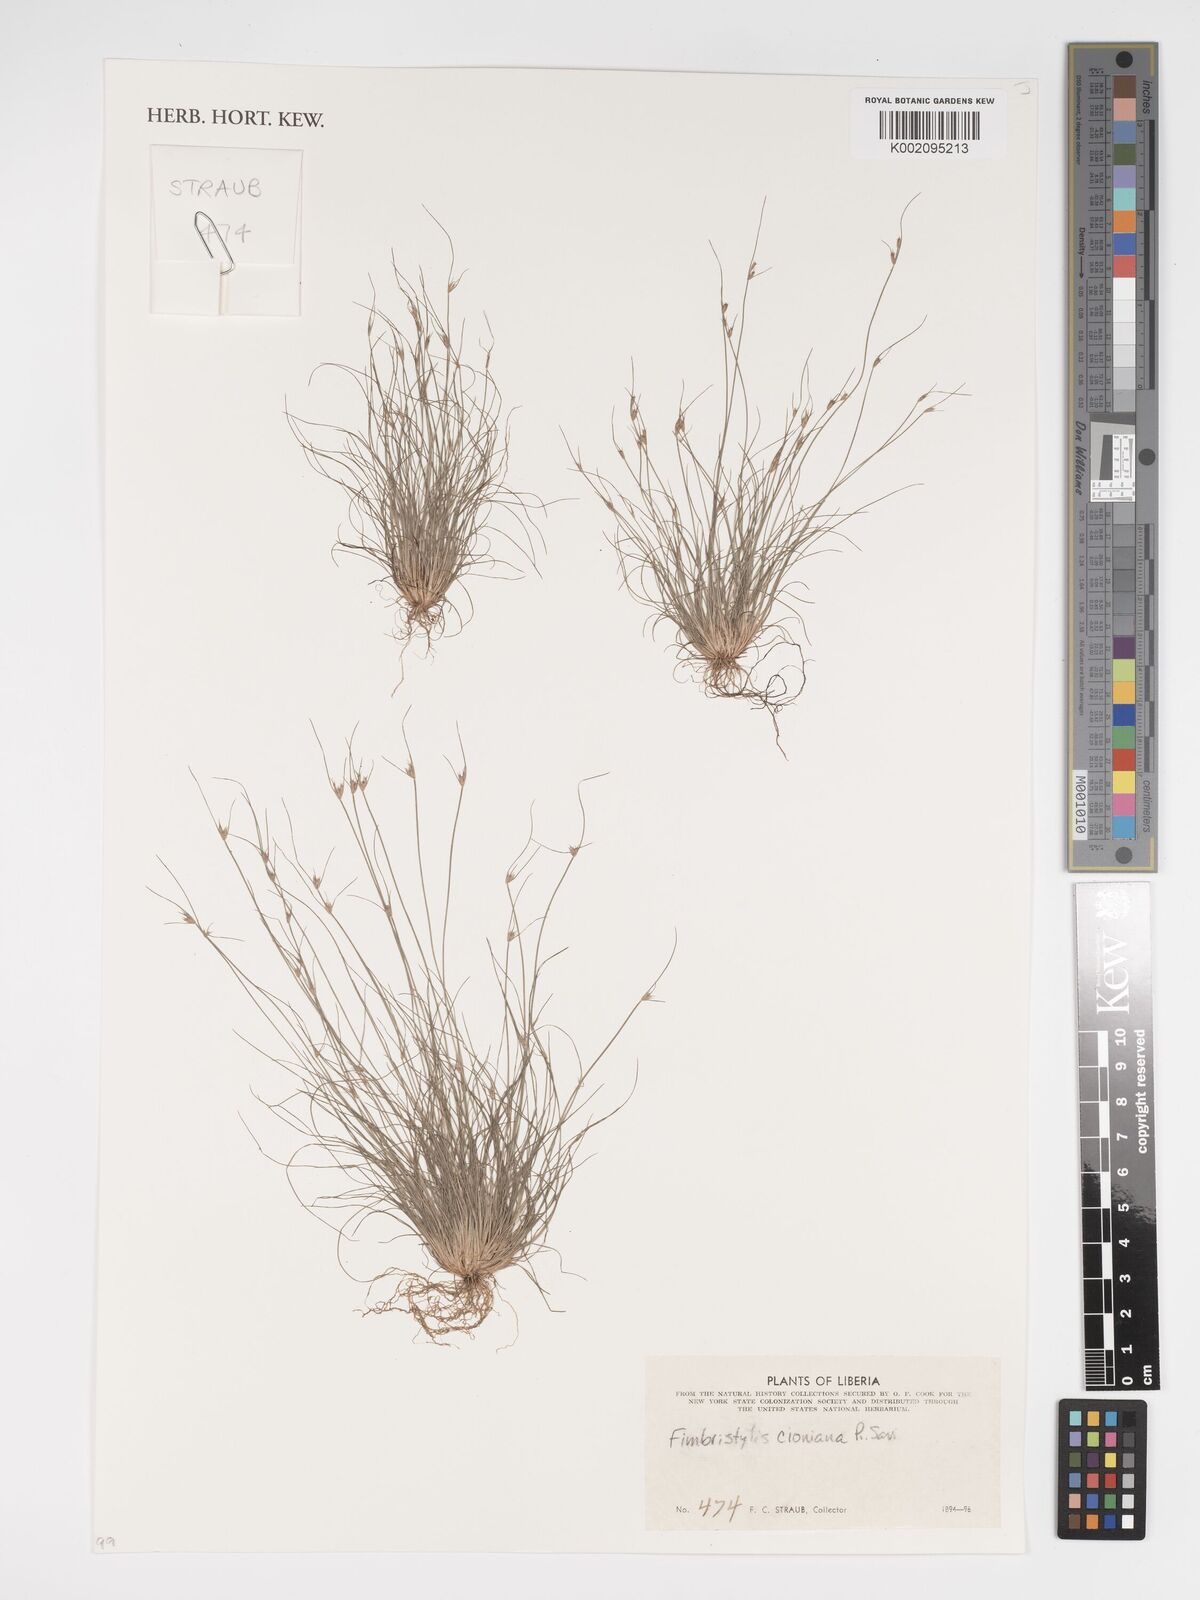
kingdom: Plantae
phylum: Tracheophyta
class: Liliopsida
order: Poales
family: Cyperaceae
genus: Bulbostylis
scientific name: Bulbostylis cioniana
